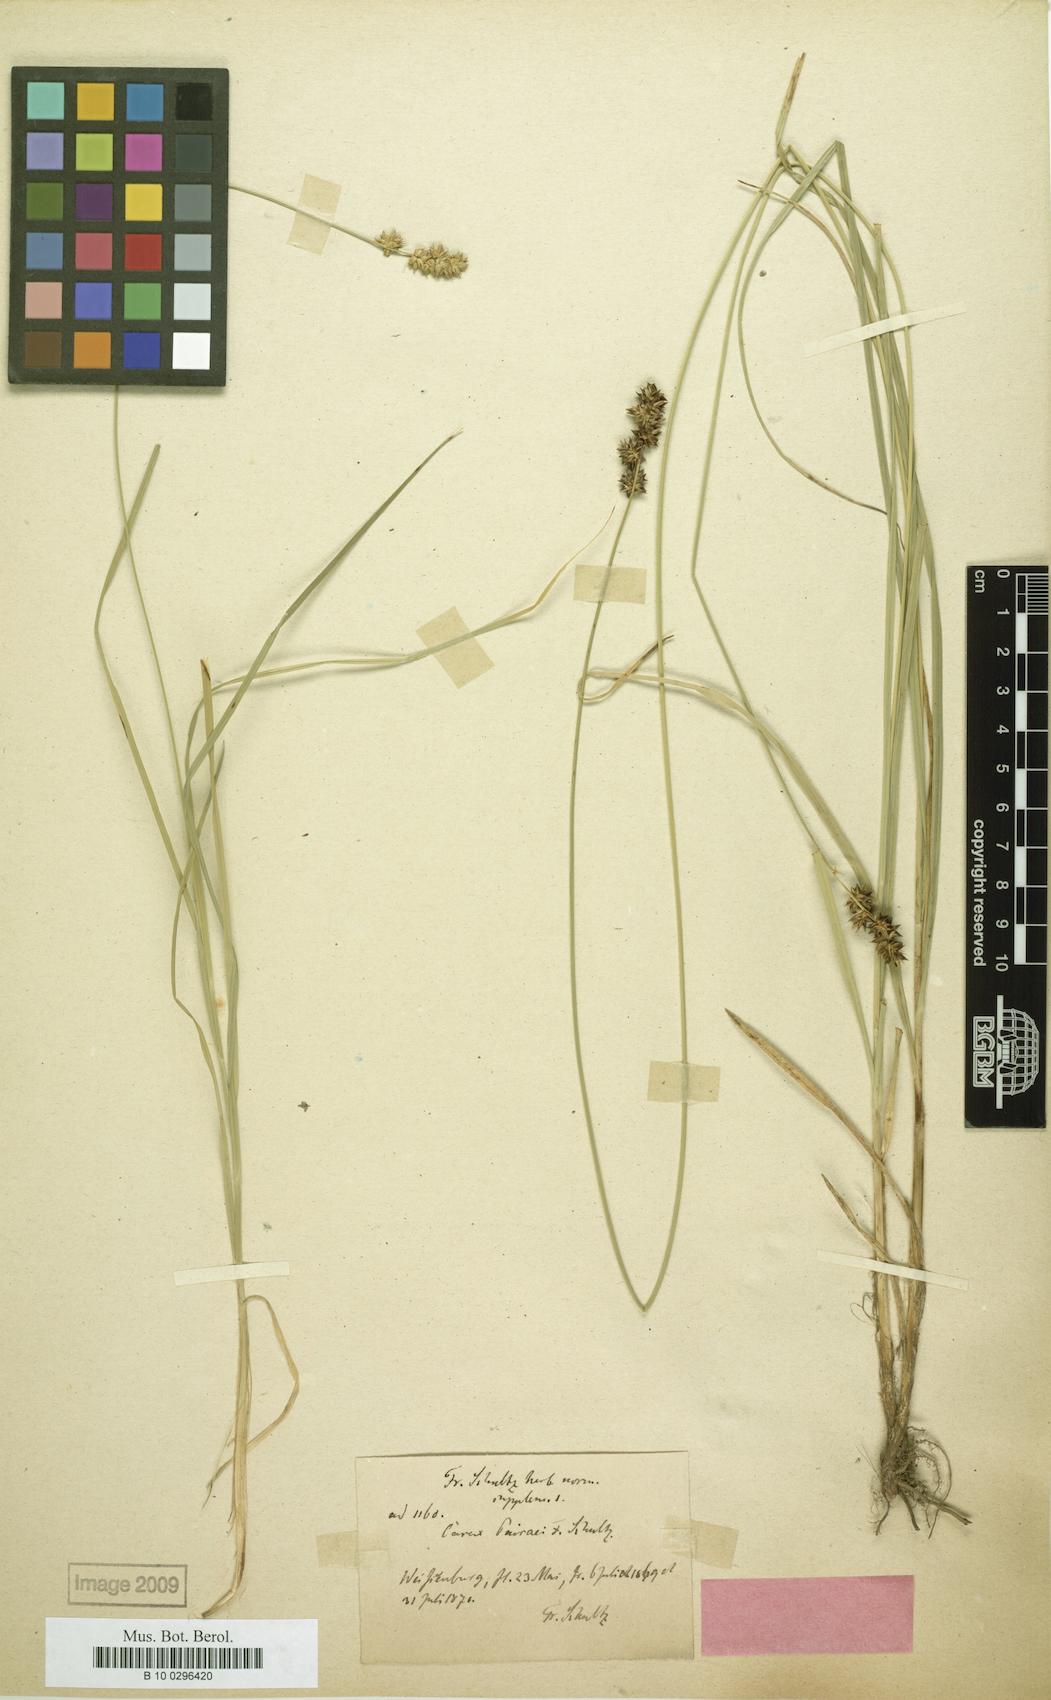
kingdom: Plantae
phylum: Tracheophyta
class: Liliopsida
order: Poales
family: Cyperaceae
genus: Carex
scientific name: Carex pairae
